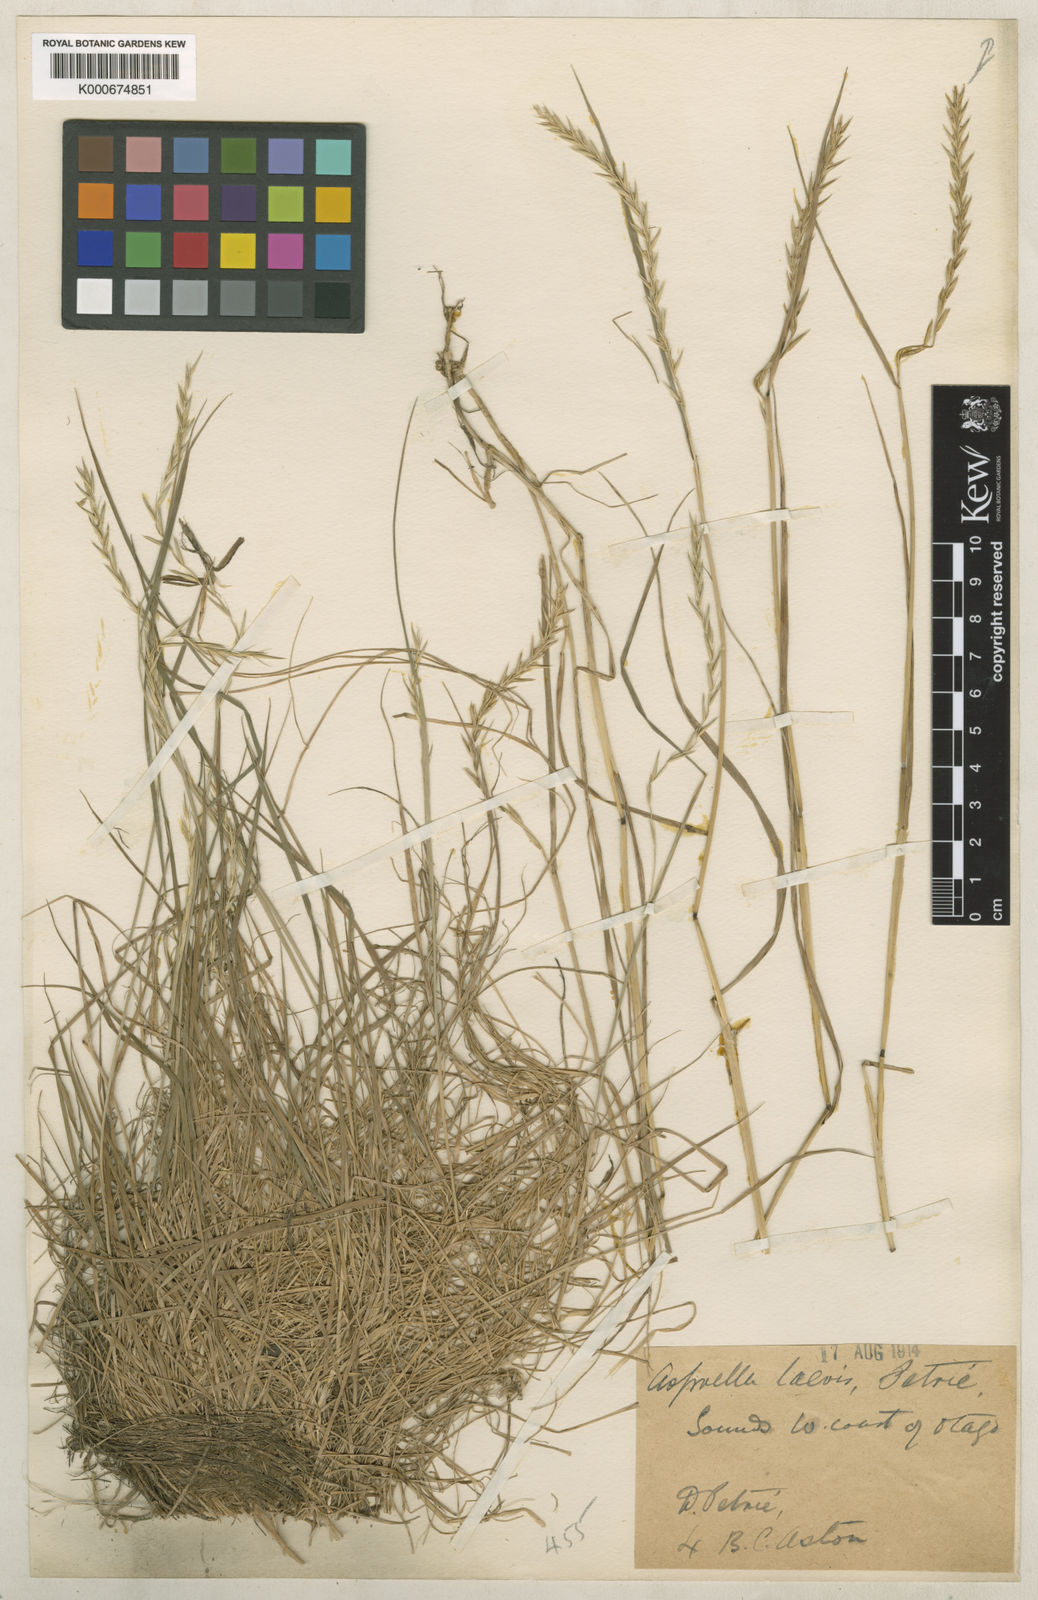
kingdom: Plantae
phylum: Tracheophyta
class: Liliopsida
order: Poales
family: Poaceae
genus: Stenostachys
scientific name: Stenostachys laevis
